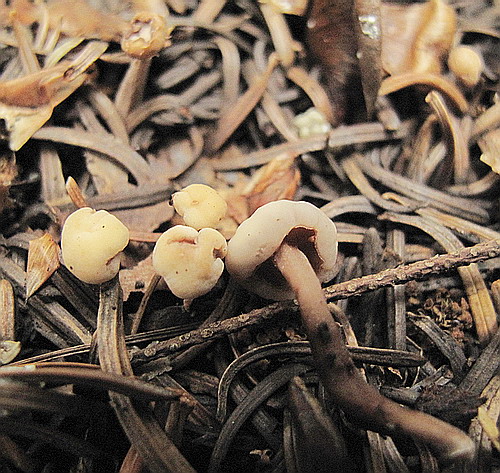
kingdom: Fungi
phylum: Ascomycota
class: Leotiomycetes
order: Rhytismatales
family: Cudoniaceae
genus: Cudonia
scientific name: Cudonia circinans
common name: hekserings-hjelmmorkel
